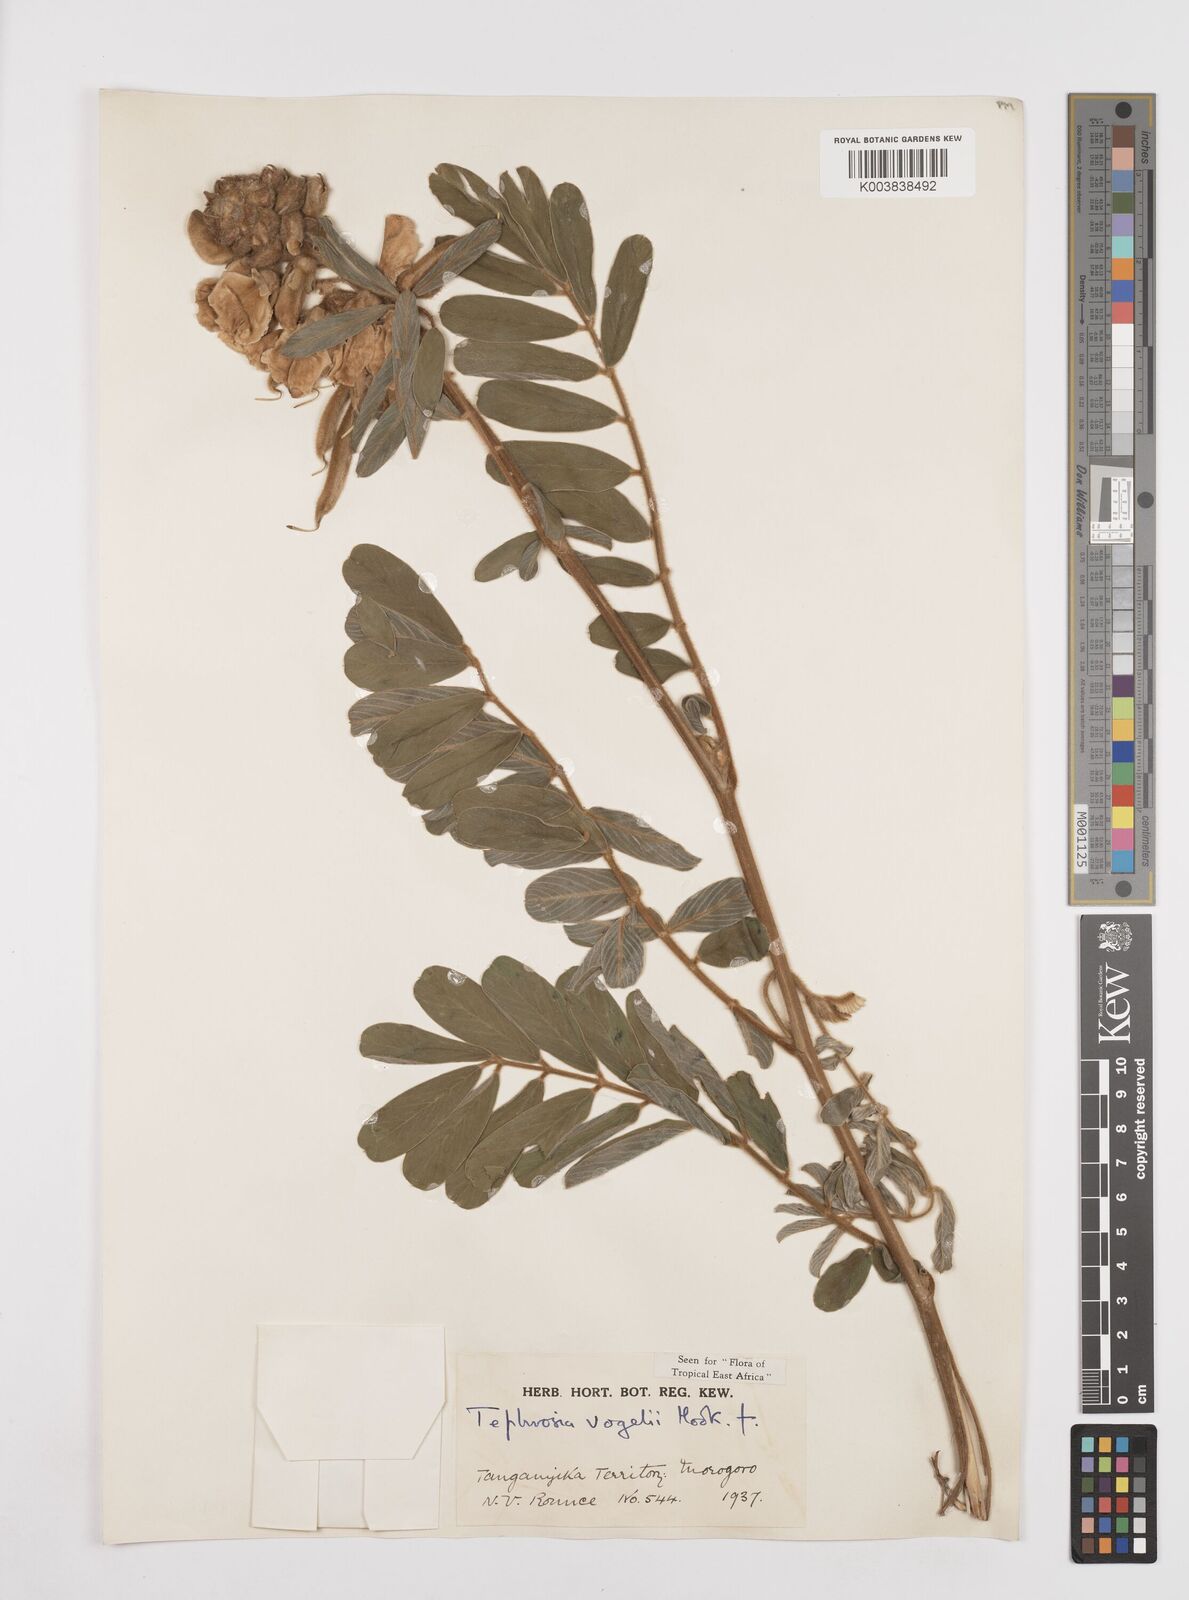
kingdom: Plantae
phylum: Tracheophyta
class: Magnoliopsida
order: Fabales
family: Fabaceae
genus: Tephrosia
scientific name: Tephrosia vogelii
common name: Vogel tephrosia
